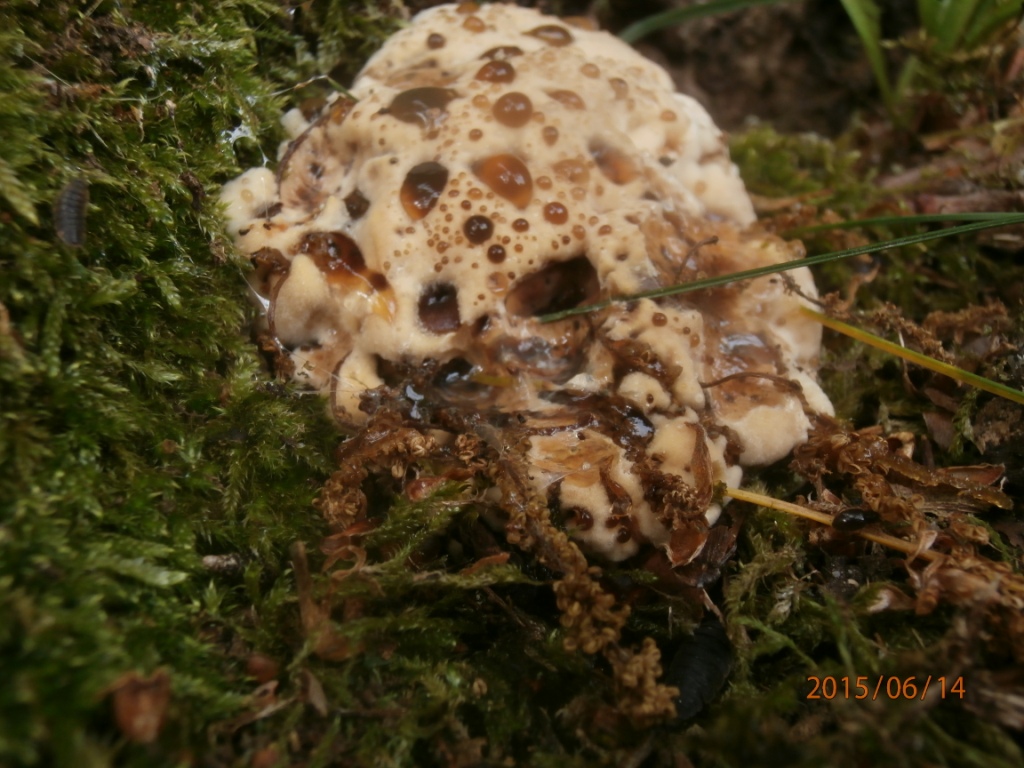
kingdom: Fungi
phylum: Basidiomycota
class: Agaricomycetes
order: Hymenochaetales
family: Hymenochaetaceae
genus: Pseudoinonotus
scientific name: Pseudoinonotus dryadeus
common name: ege-spejlporesvamp
